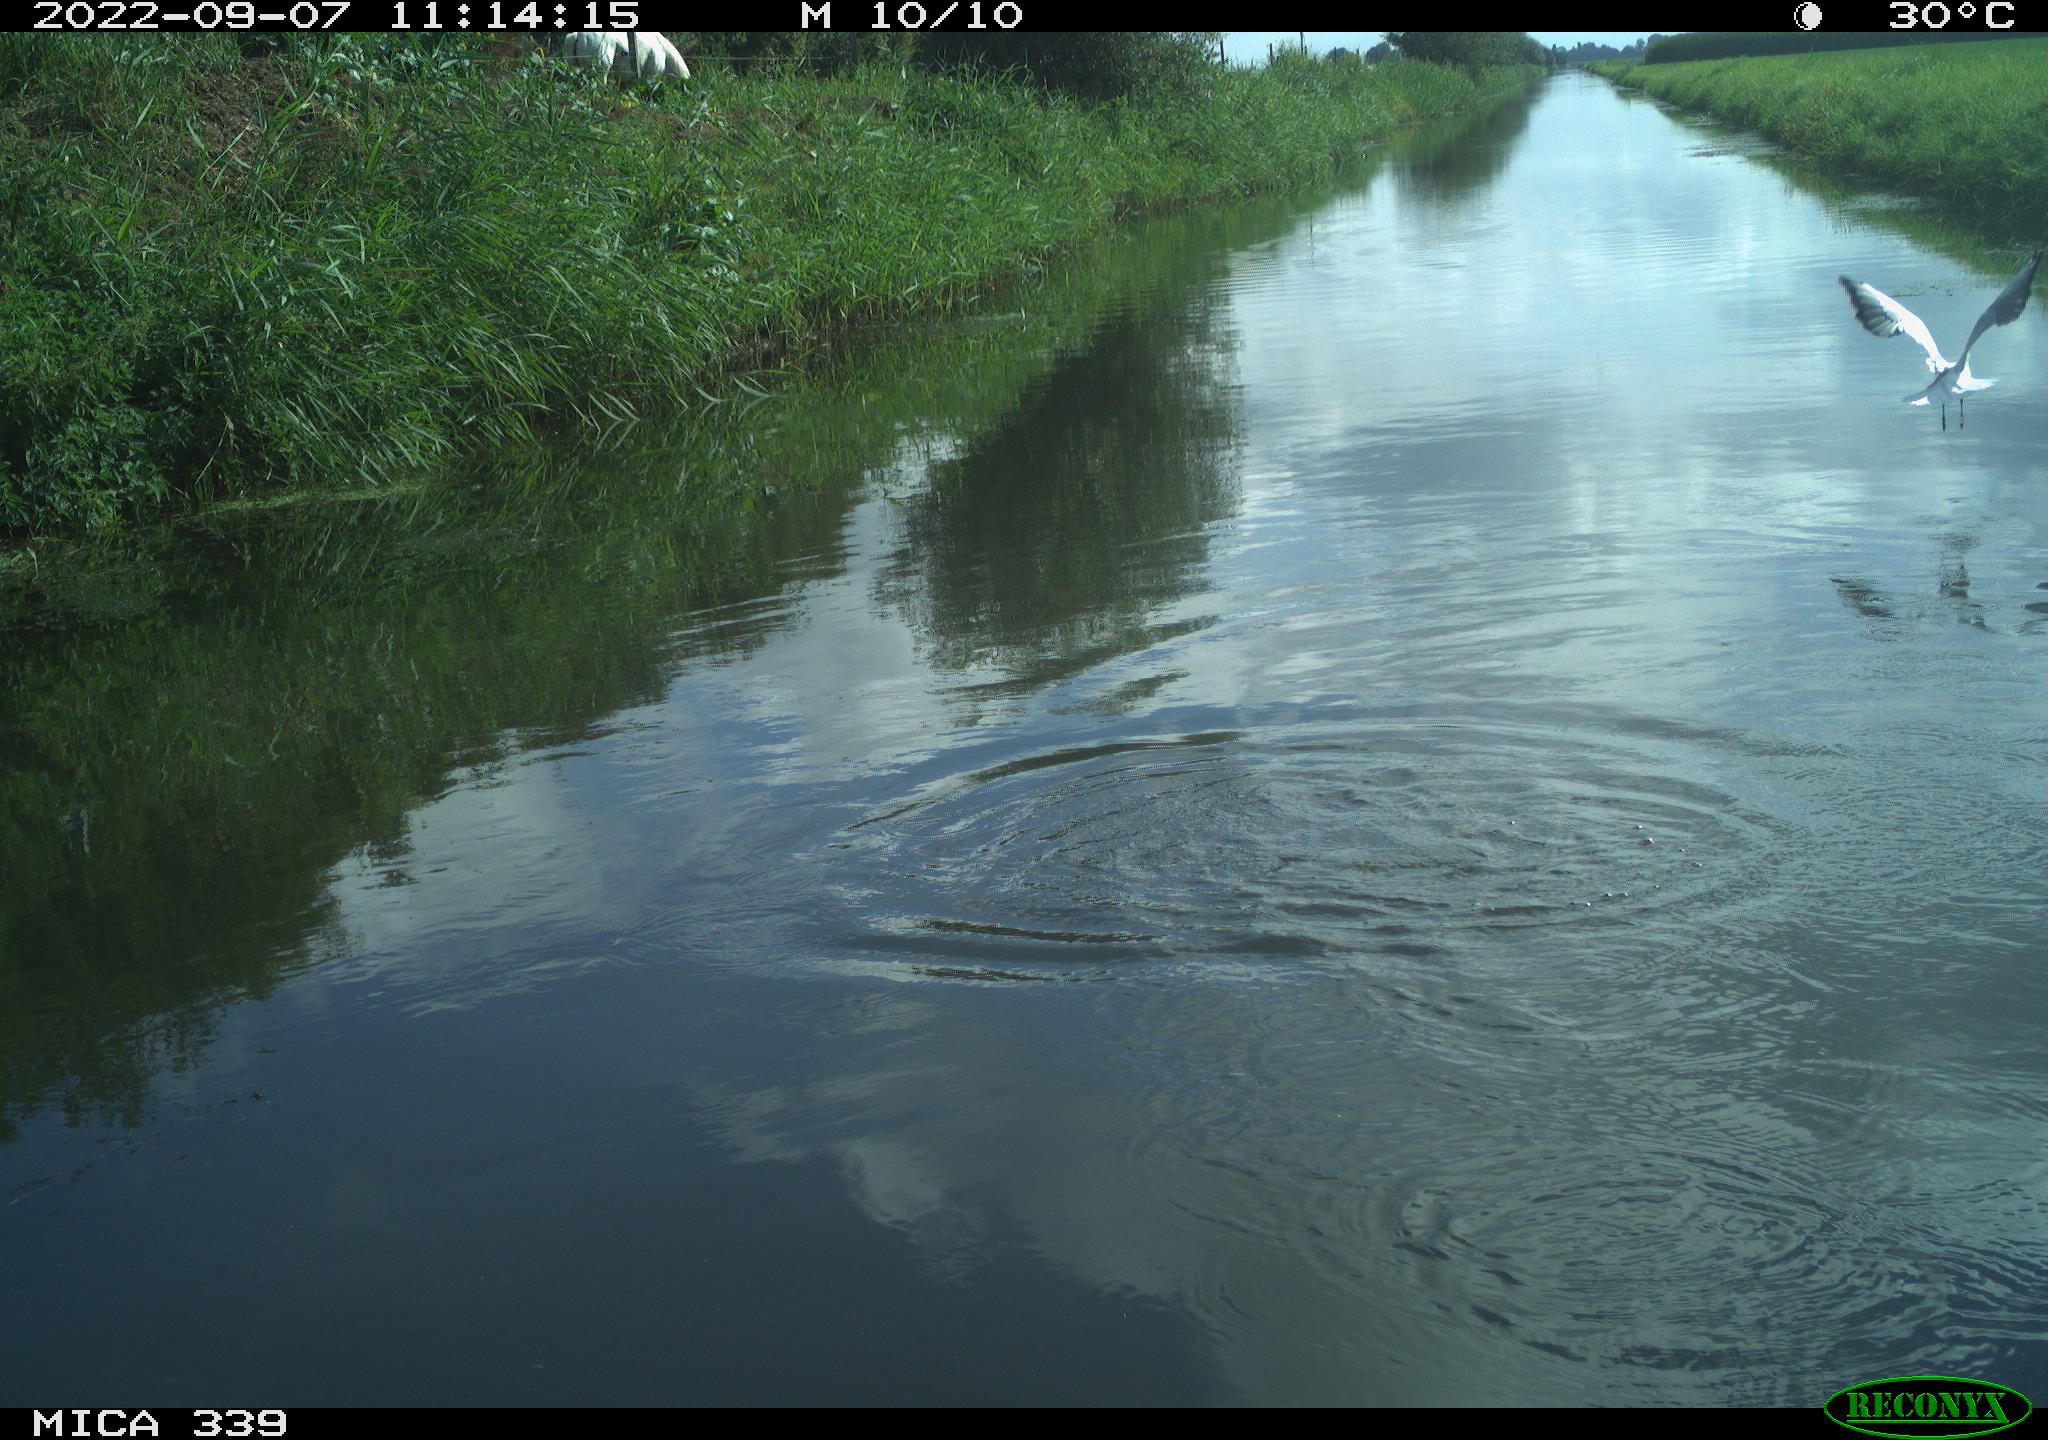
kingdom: Animalia
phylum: Chordata
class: Aves
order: Charadriiformes
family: Laridae
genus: Chroicocephalus
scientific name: Chroicocephalus ridibundus
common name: Black-headed gull
